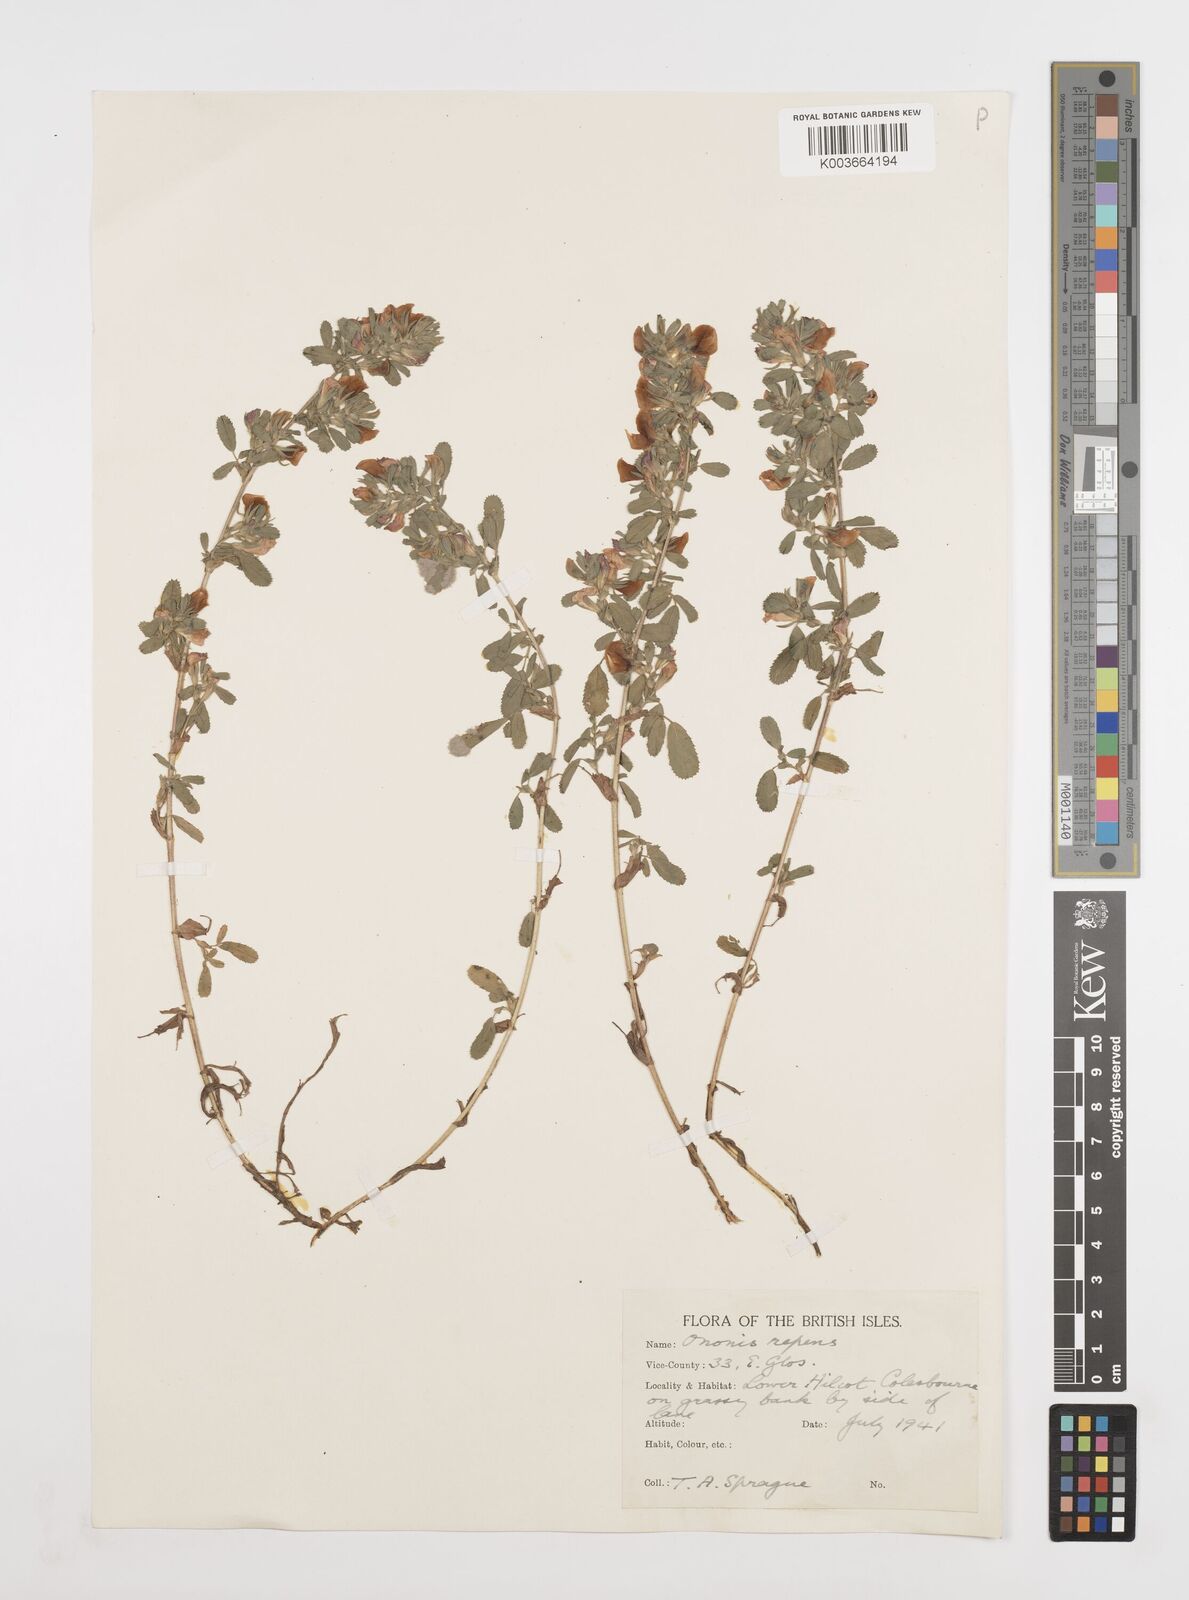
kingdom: Plantae
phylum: Tracheophyta
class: Magnoliopsida
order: Fabales
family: Fabaceae
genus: Ononis
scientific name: Ononis spinosa
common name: Spiny restharrow
